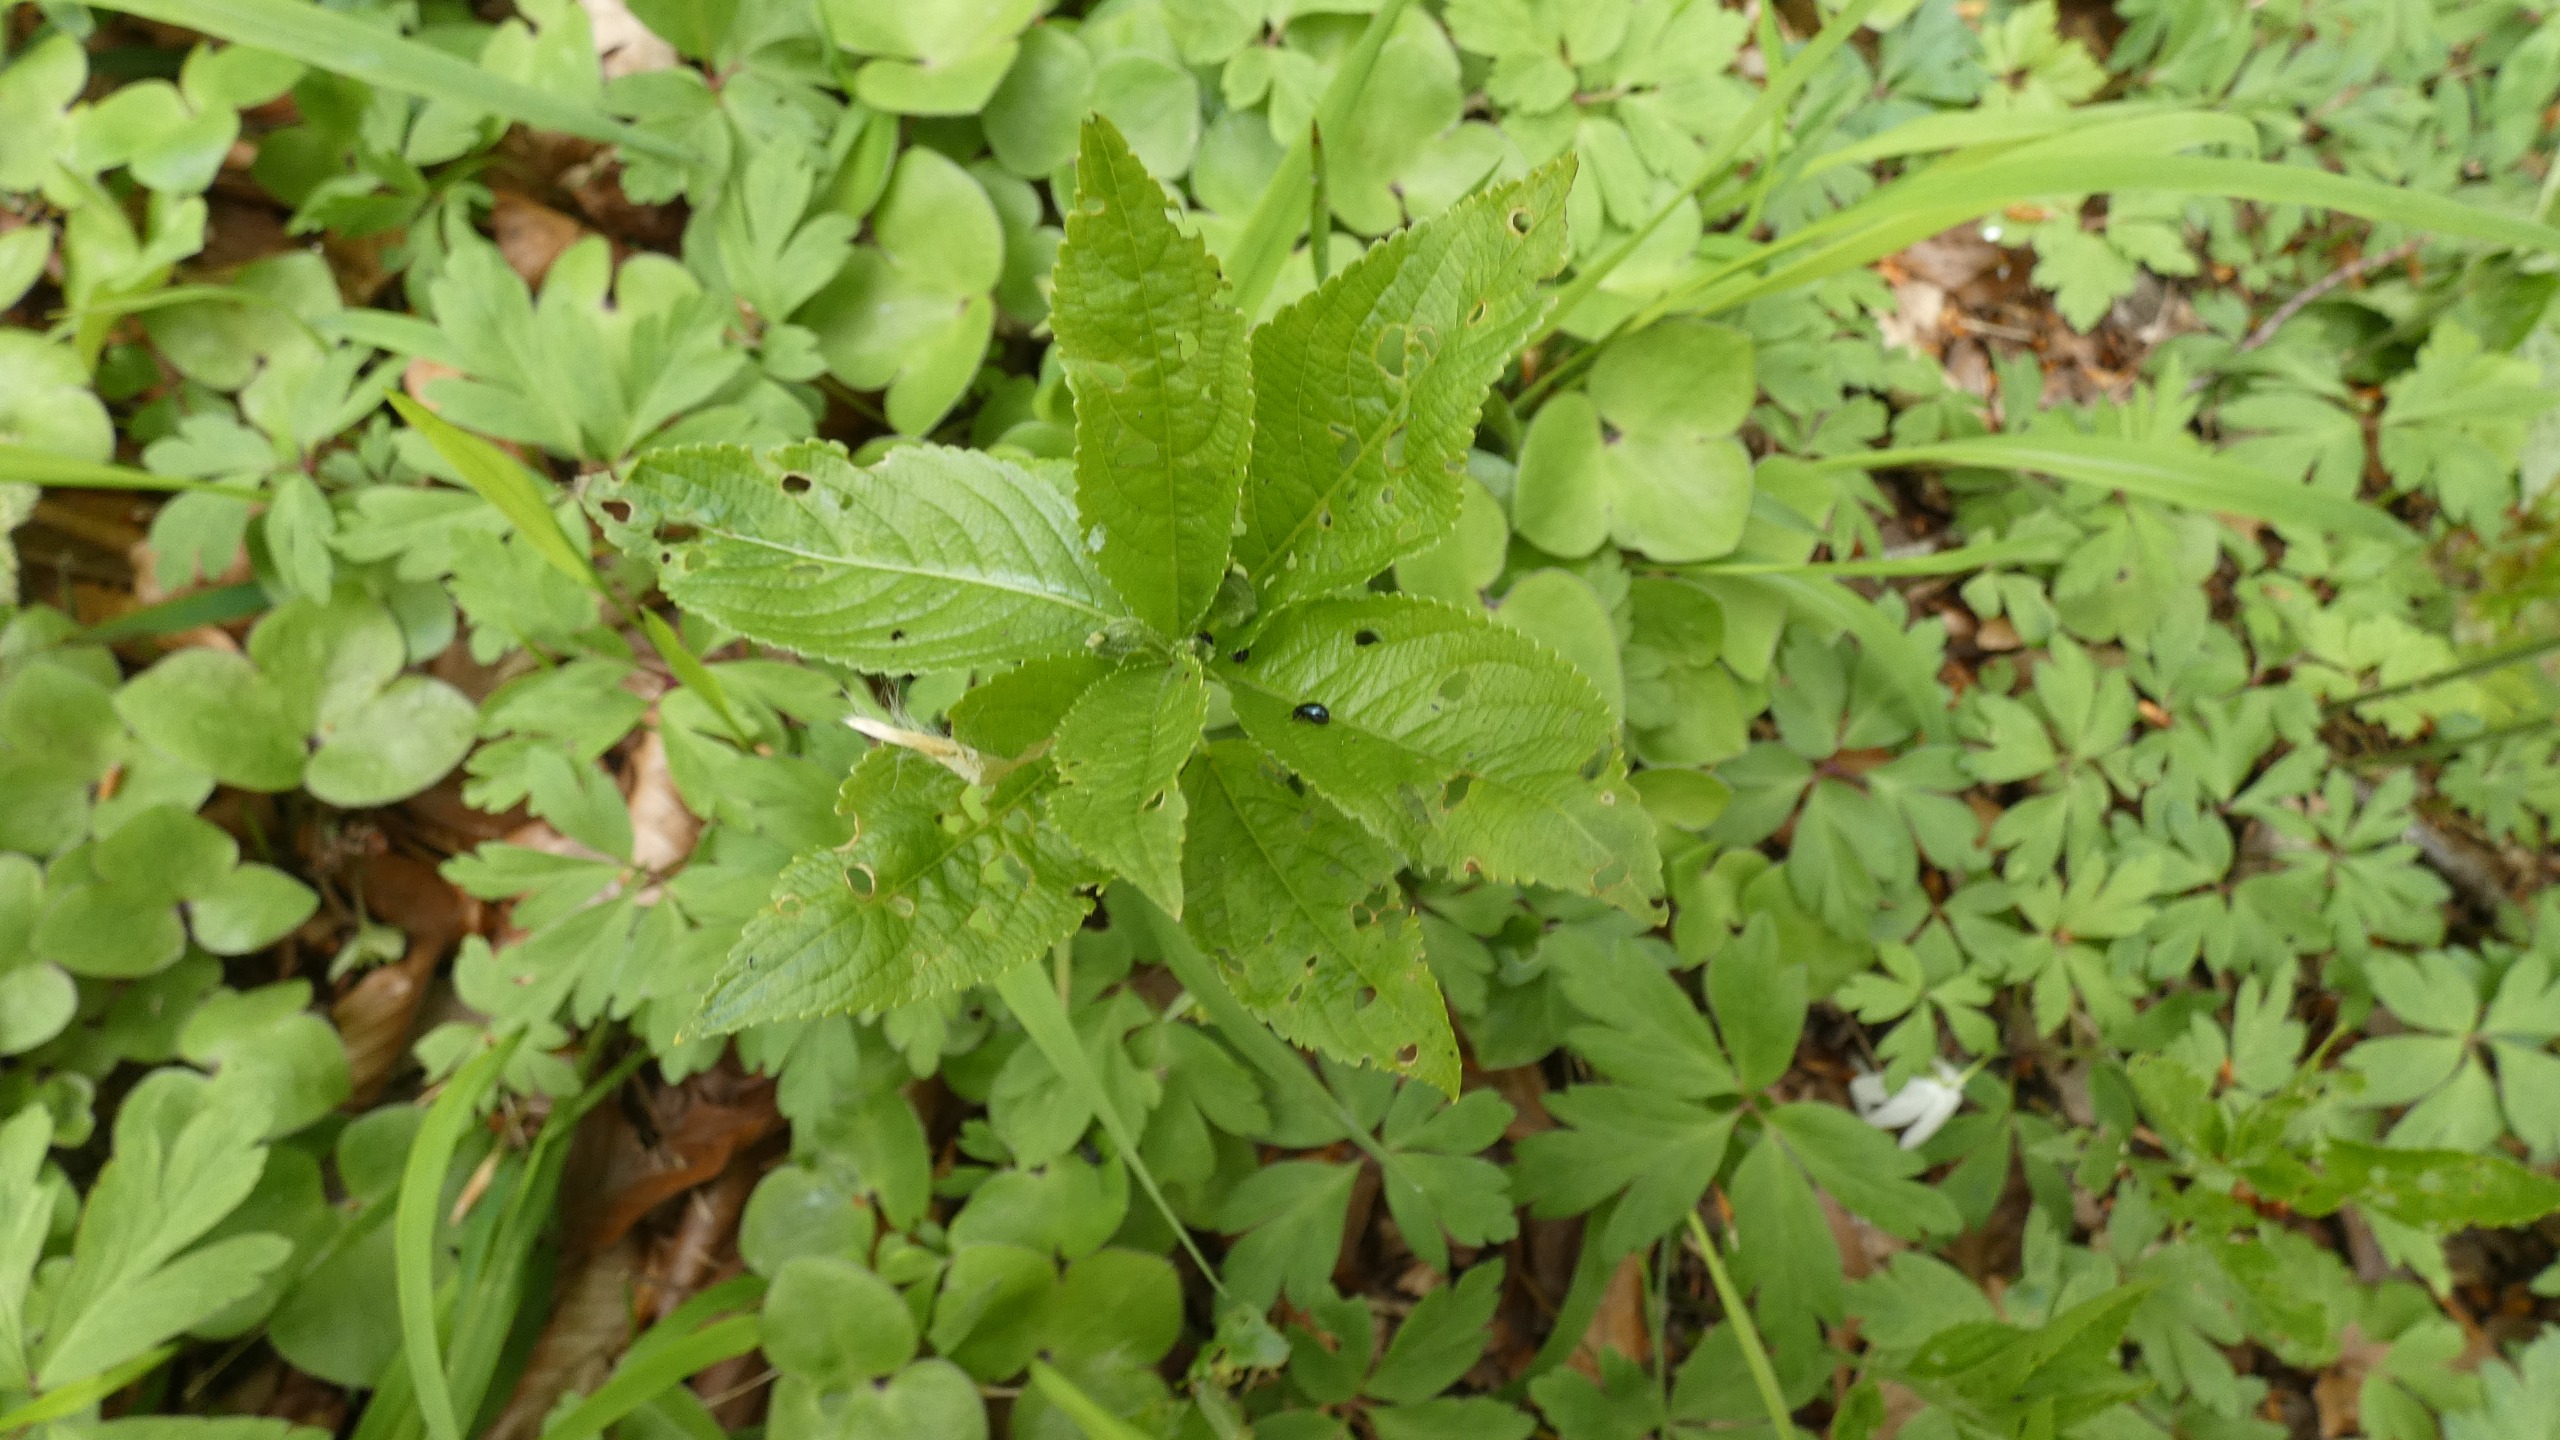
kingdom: Plantae
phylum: Tracheophyta
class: Magnoliopsida
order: Malpighiales
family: Euphorbiaceae
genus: Mercurialis
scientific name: Mercurialis perennis
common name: Almindelig bingelurt
